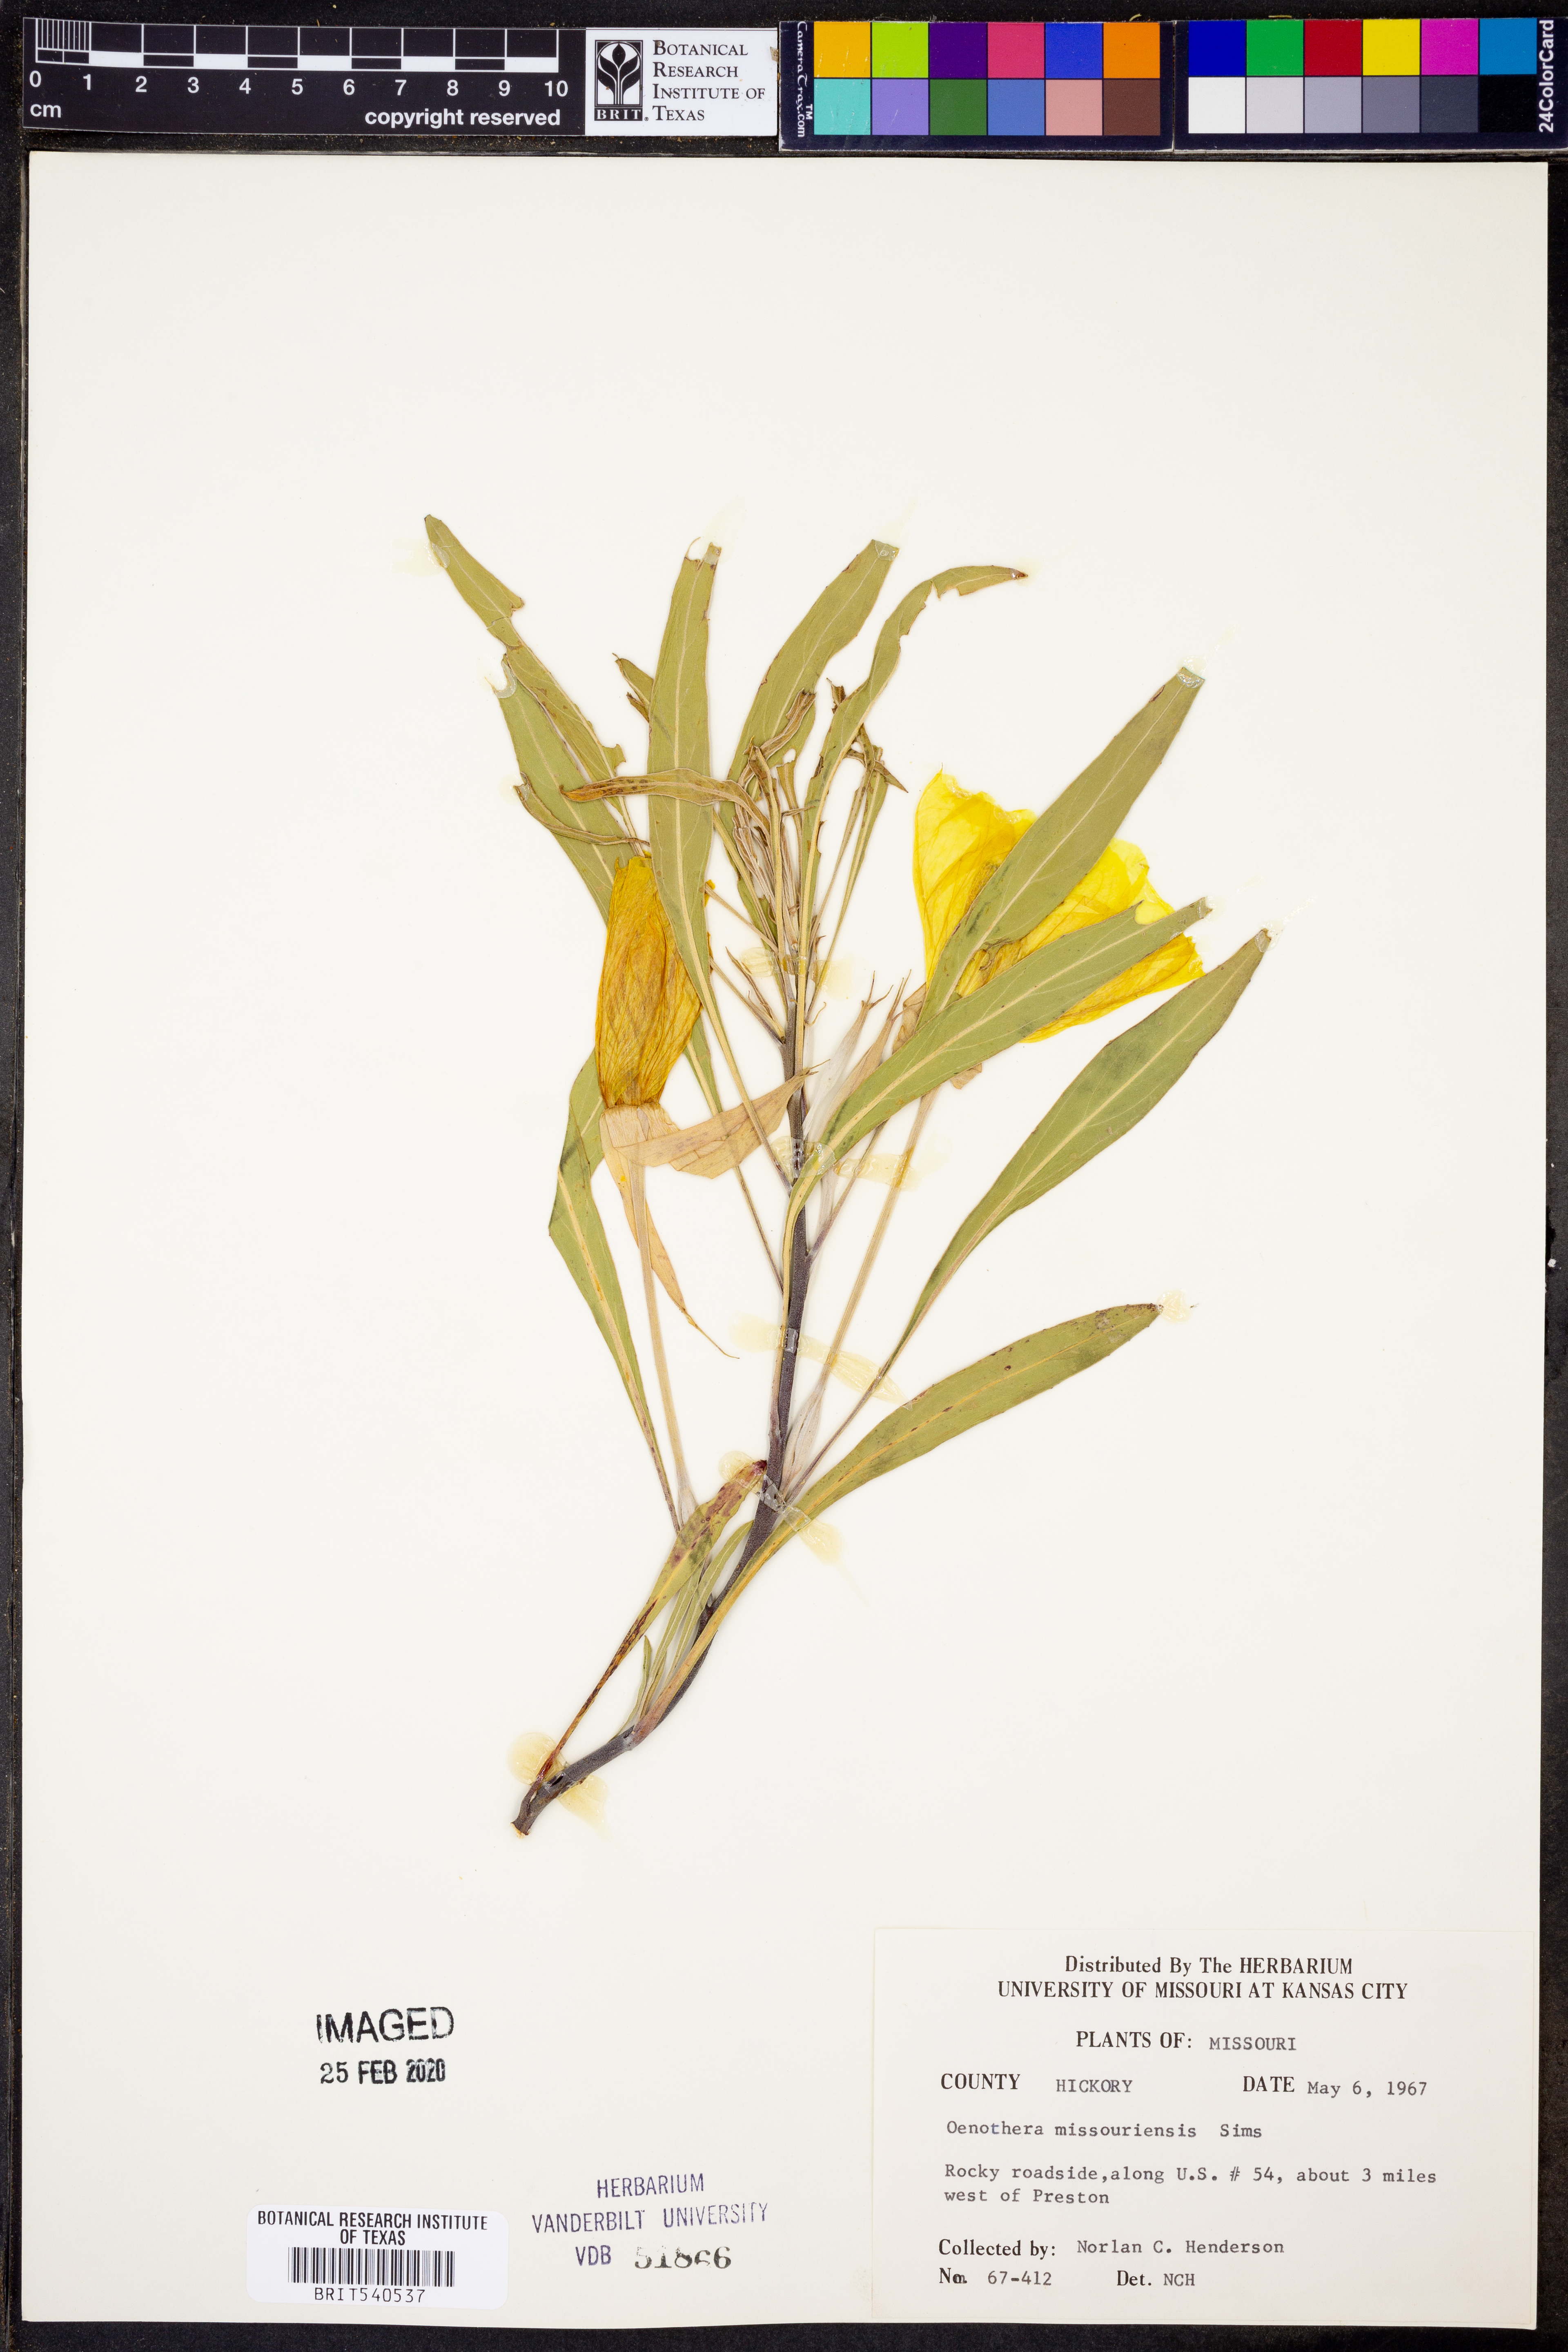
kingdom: Plantae
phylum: Tracheophyta
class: Magnoliopsida
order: Myrtales
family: Onagraceae
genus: Oenothera
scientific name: Oenothera macrocarpa
